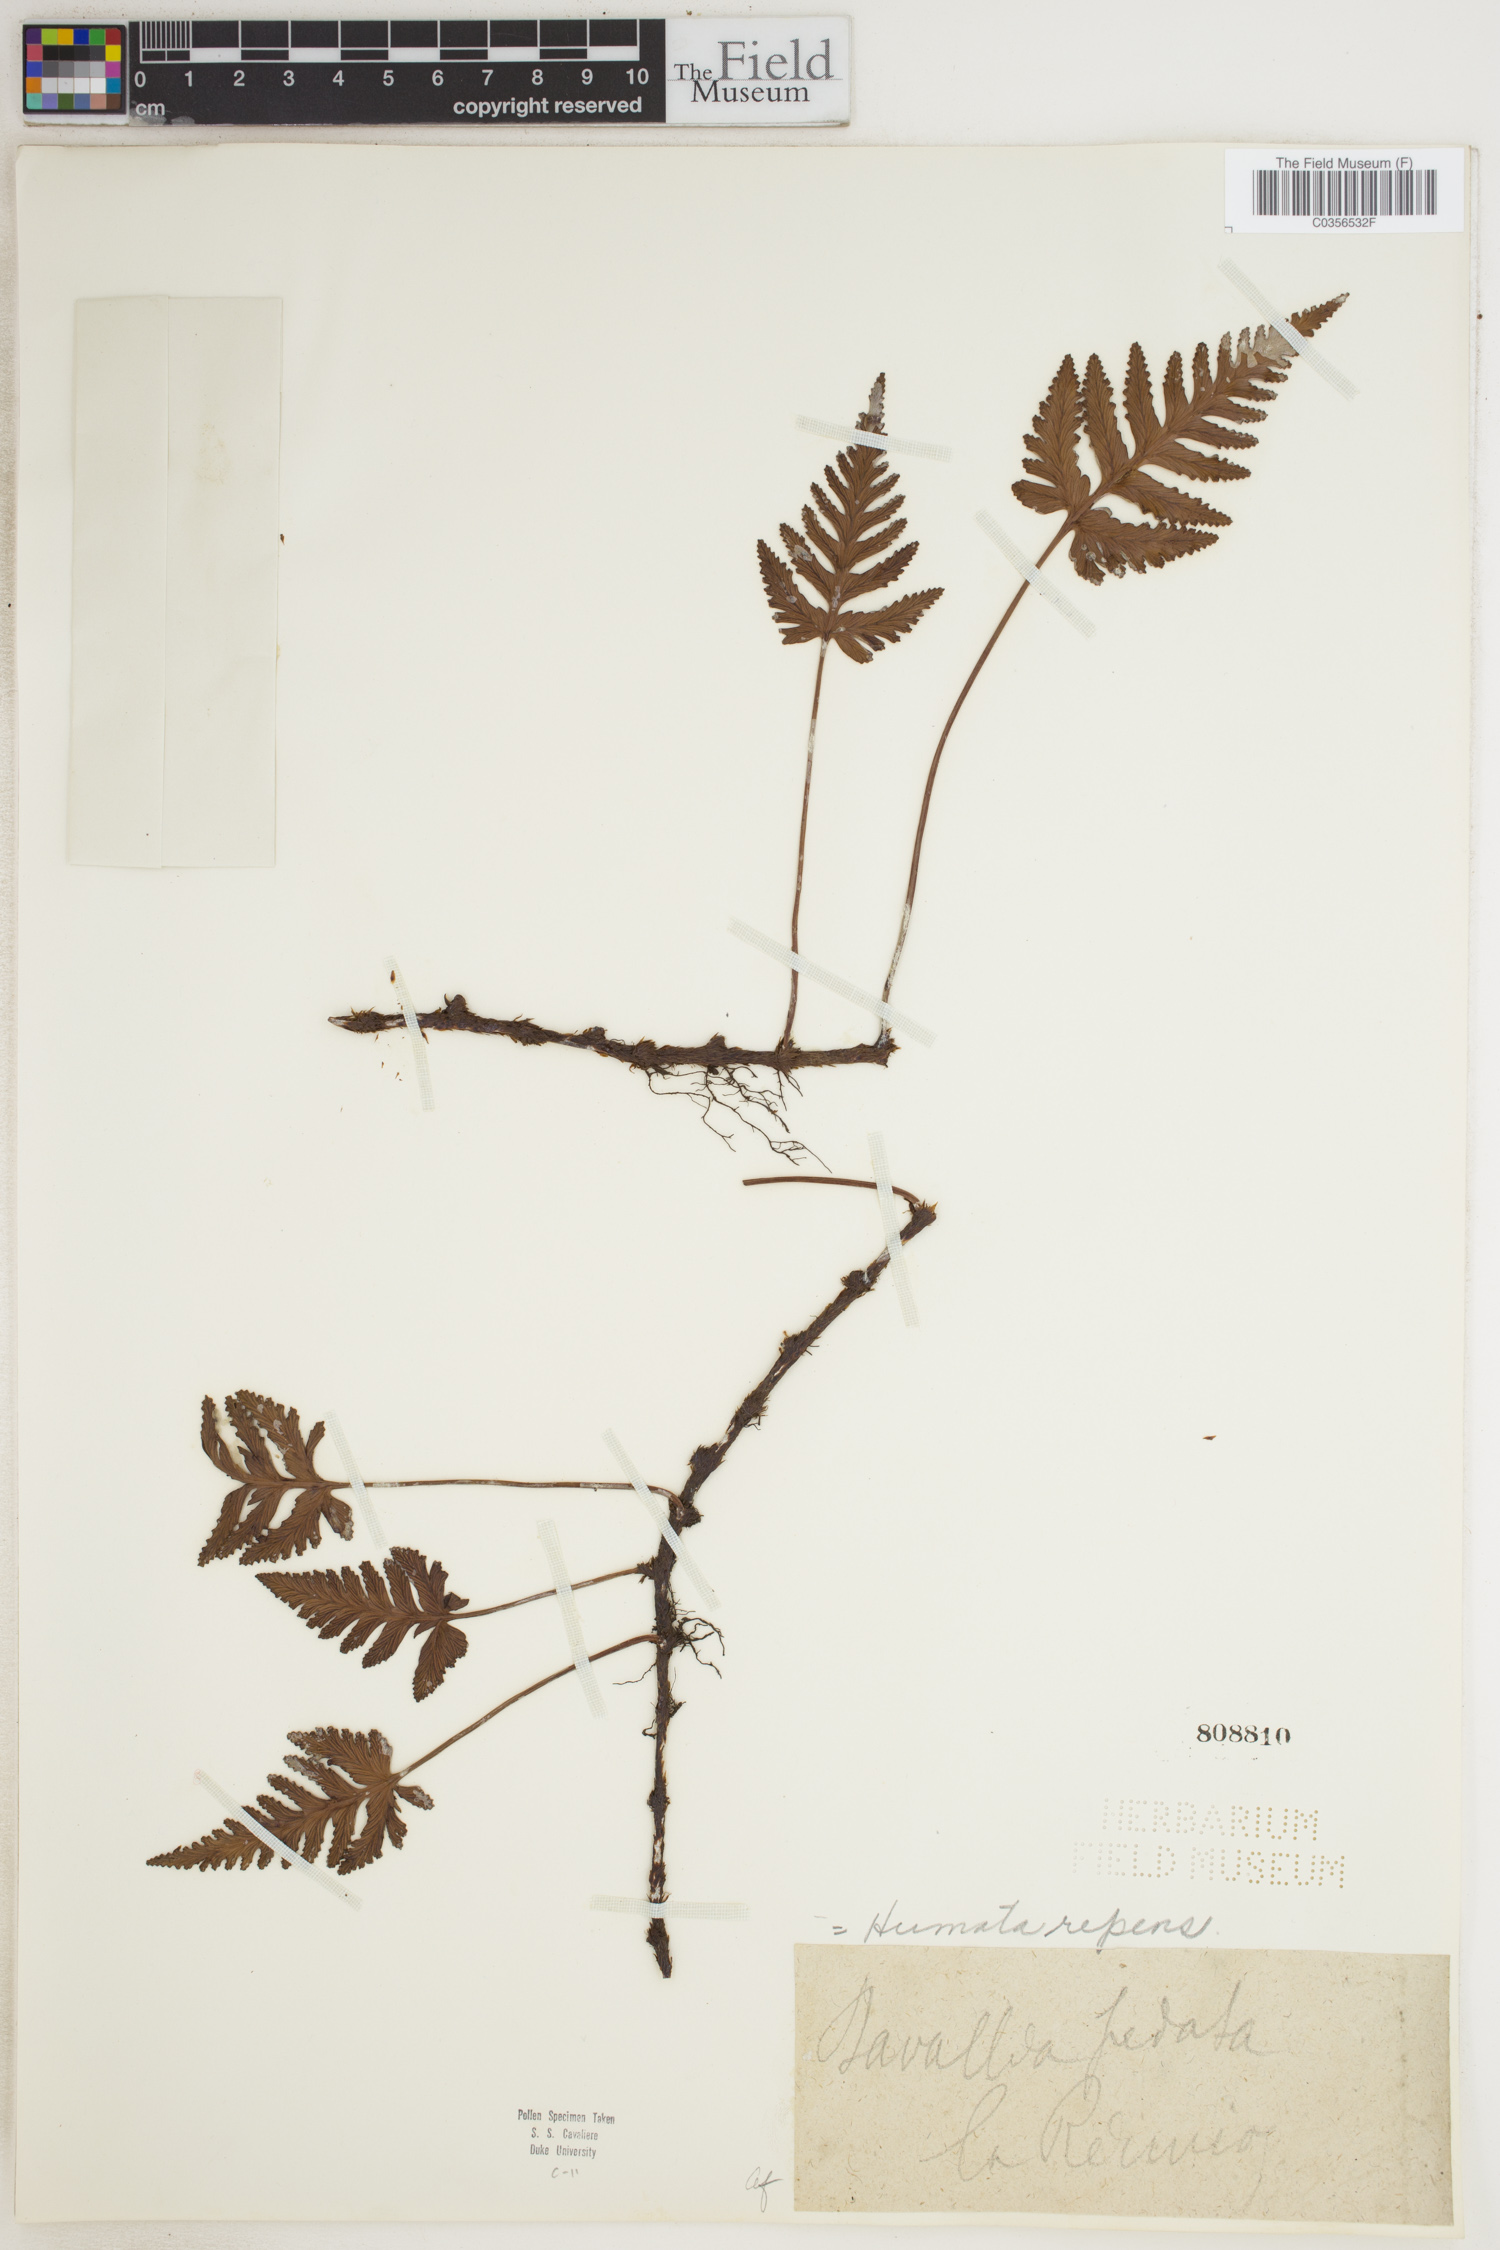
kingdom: Plantae
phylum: Tracheophyta
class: Polypodiopsida
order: Polypodiales
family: Davalliaceae
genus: Davallia
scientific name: Davallia repens
